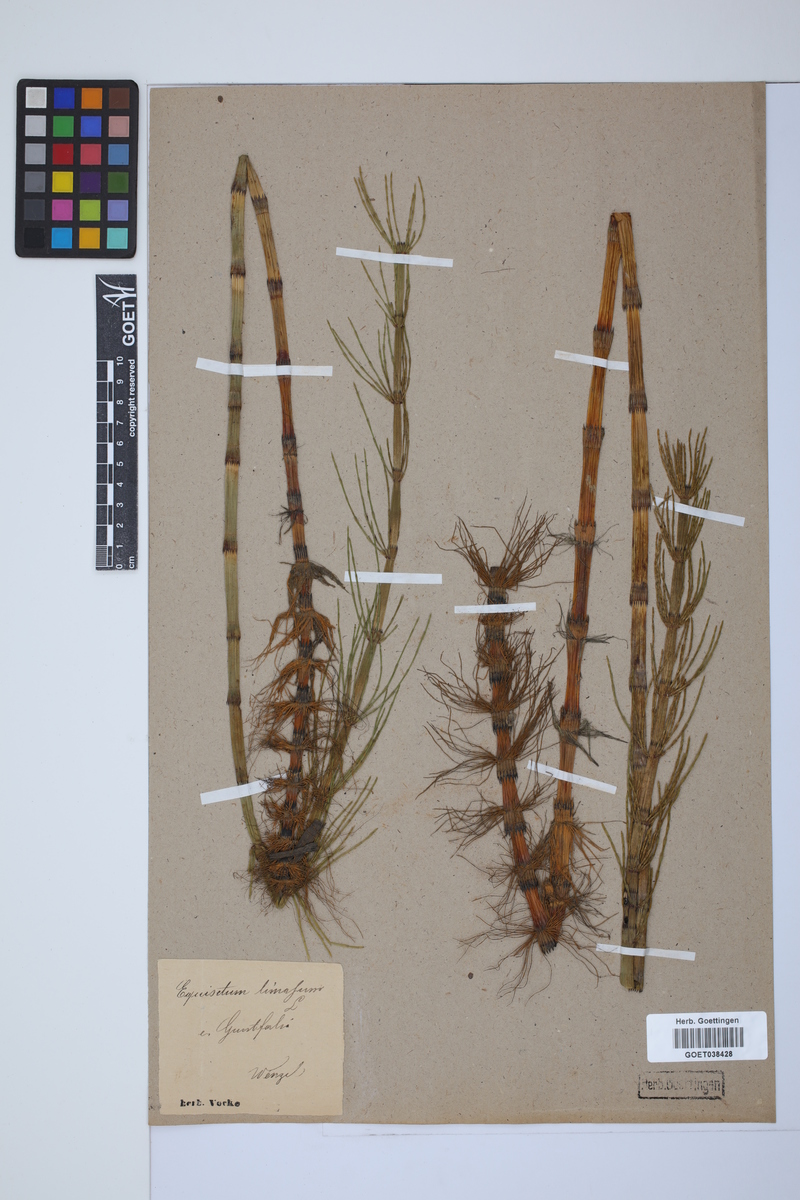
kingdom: Plantae
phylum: Tracheophyta
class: Polypodiopsida
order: Equisetales
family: Equisetaceae
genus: Equisetum
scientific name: Equisetum fluviatile
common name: Water horsetail
